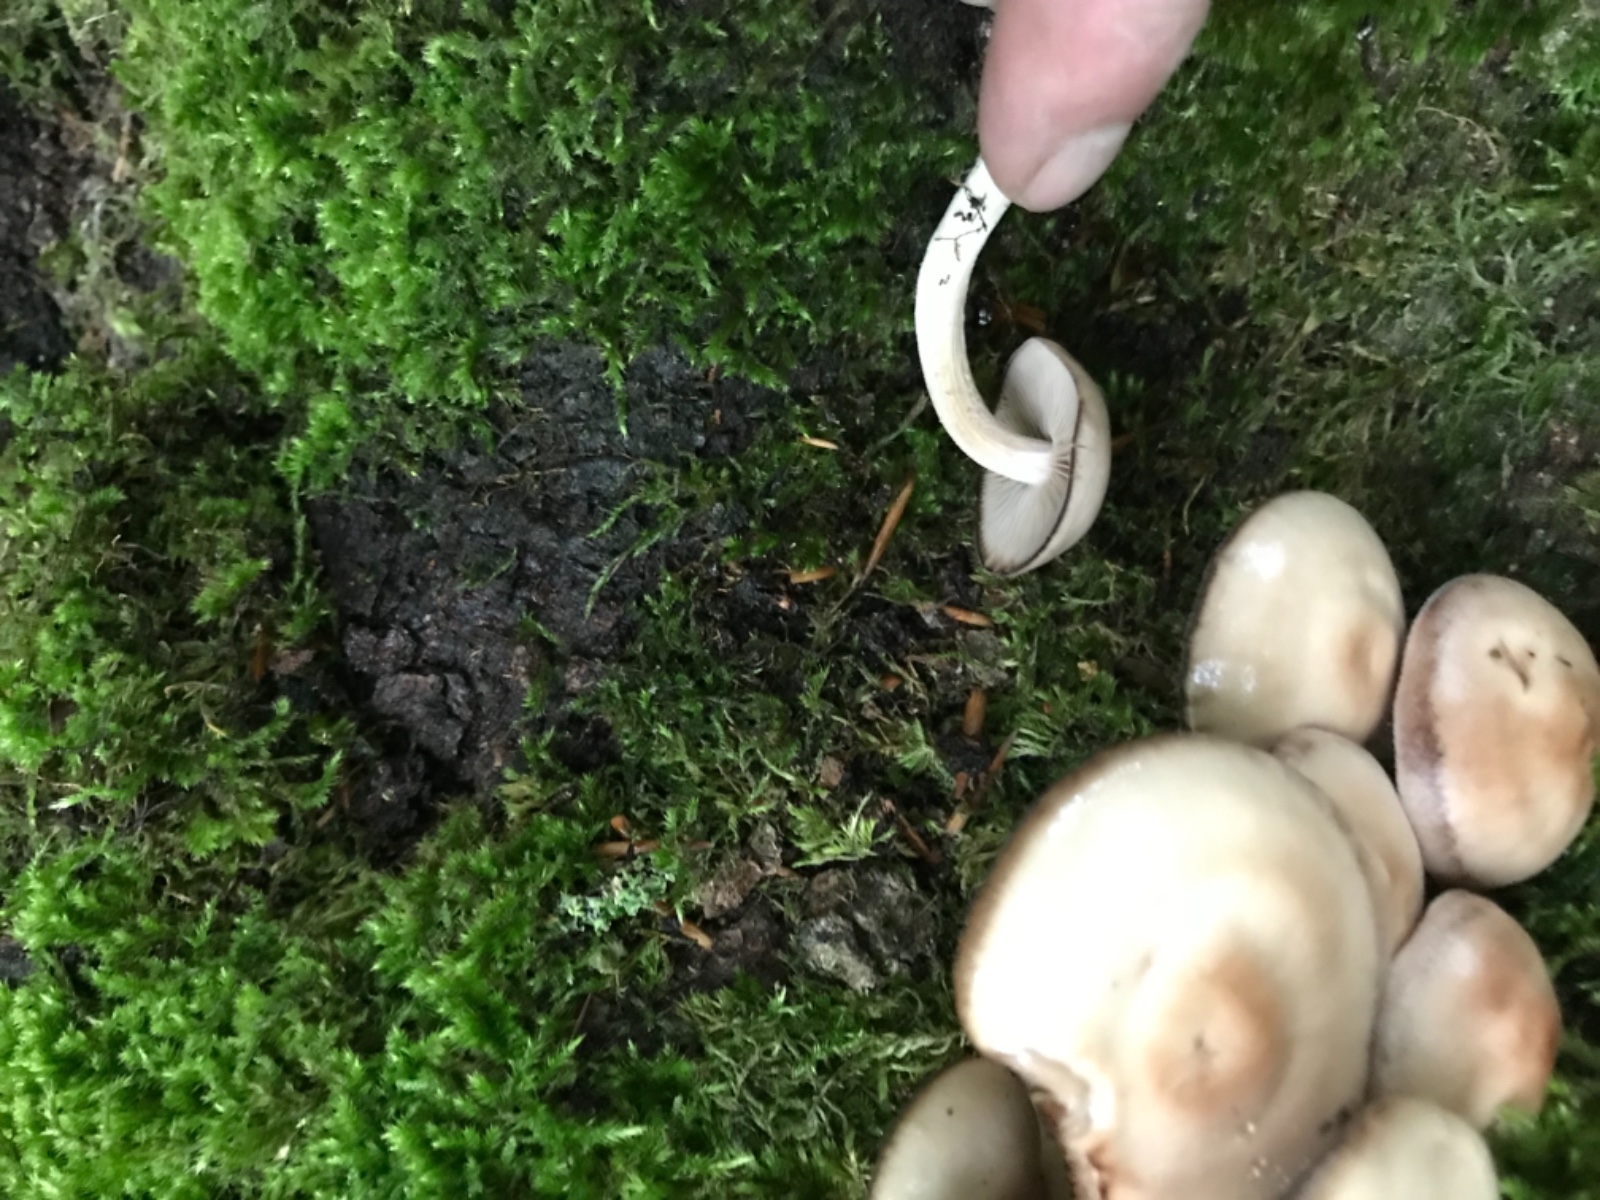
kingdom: Fungi
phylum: Basidiomycota
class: Agaricomycetes
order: Agaricales
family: Psathyrellaceae
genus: Psathyrella
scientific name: Psathyrella piluliformis
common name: lysstokket mørkhat
